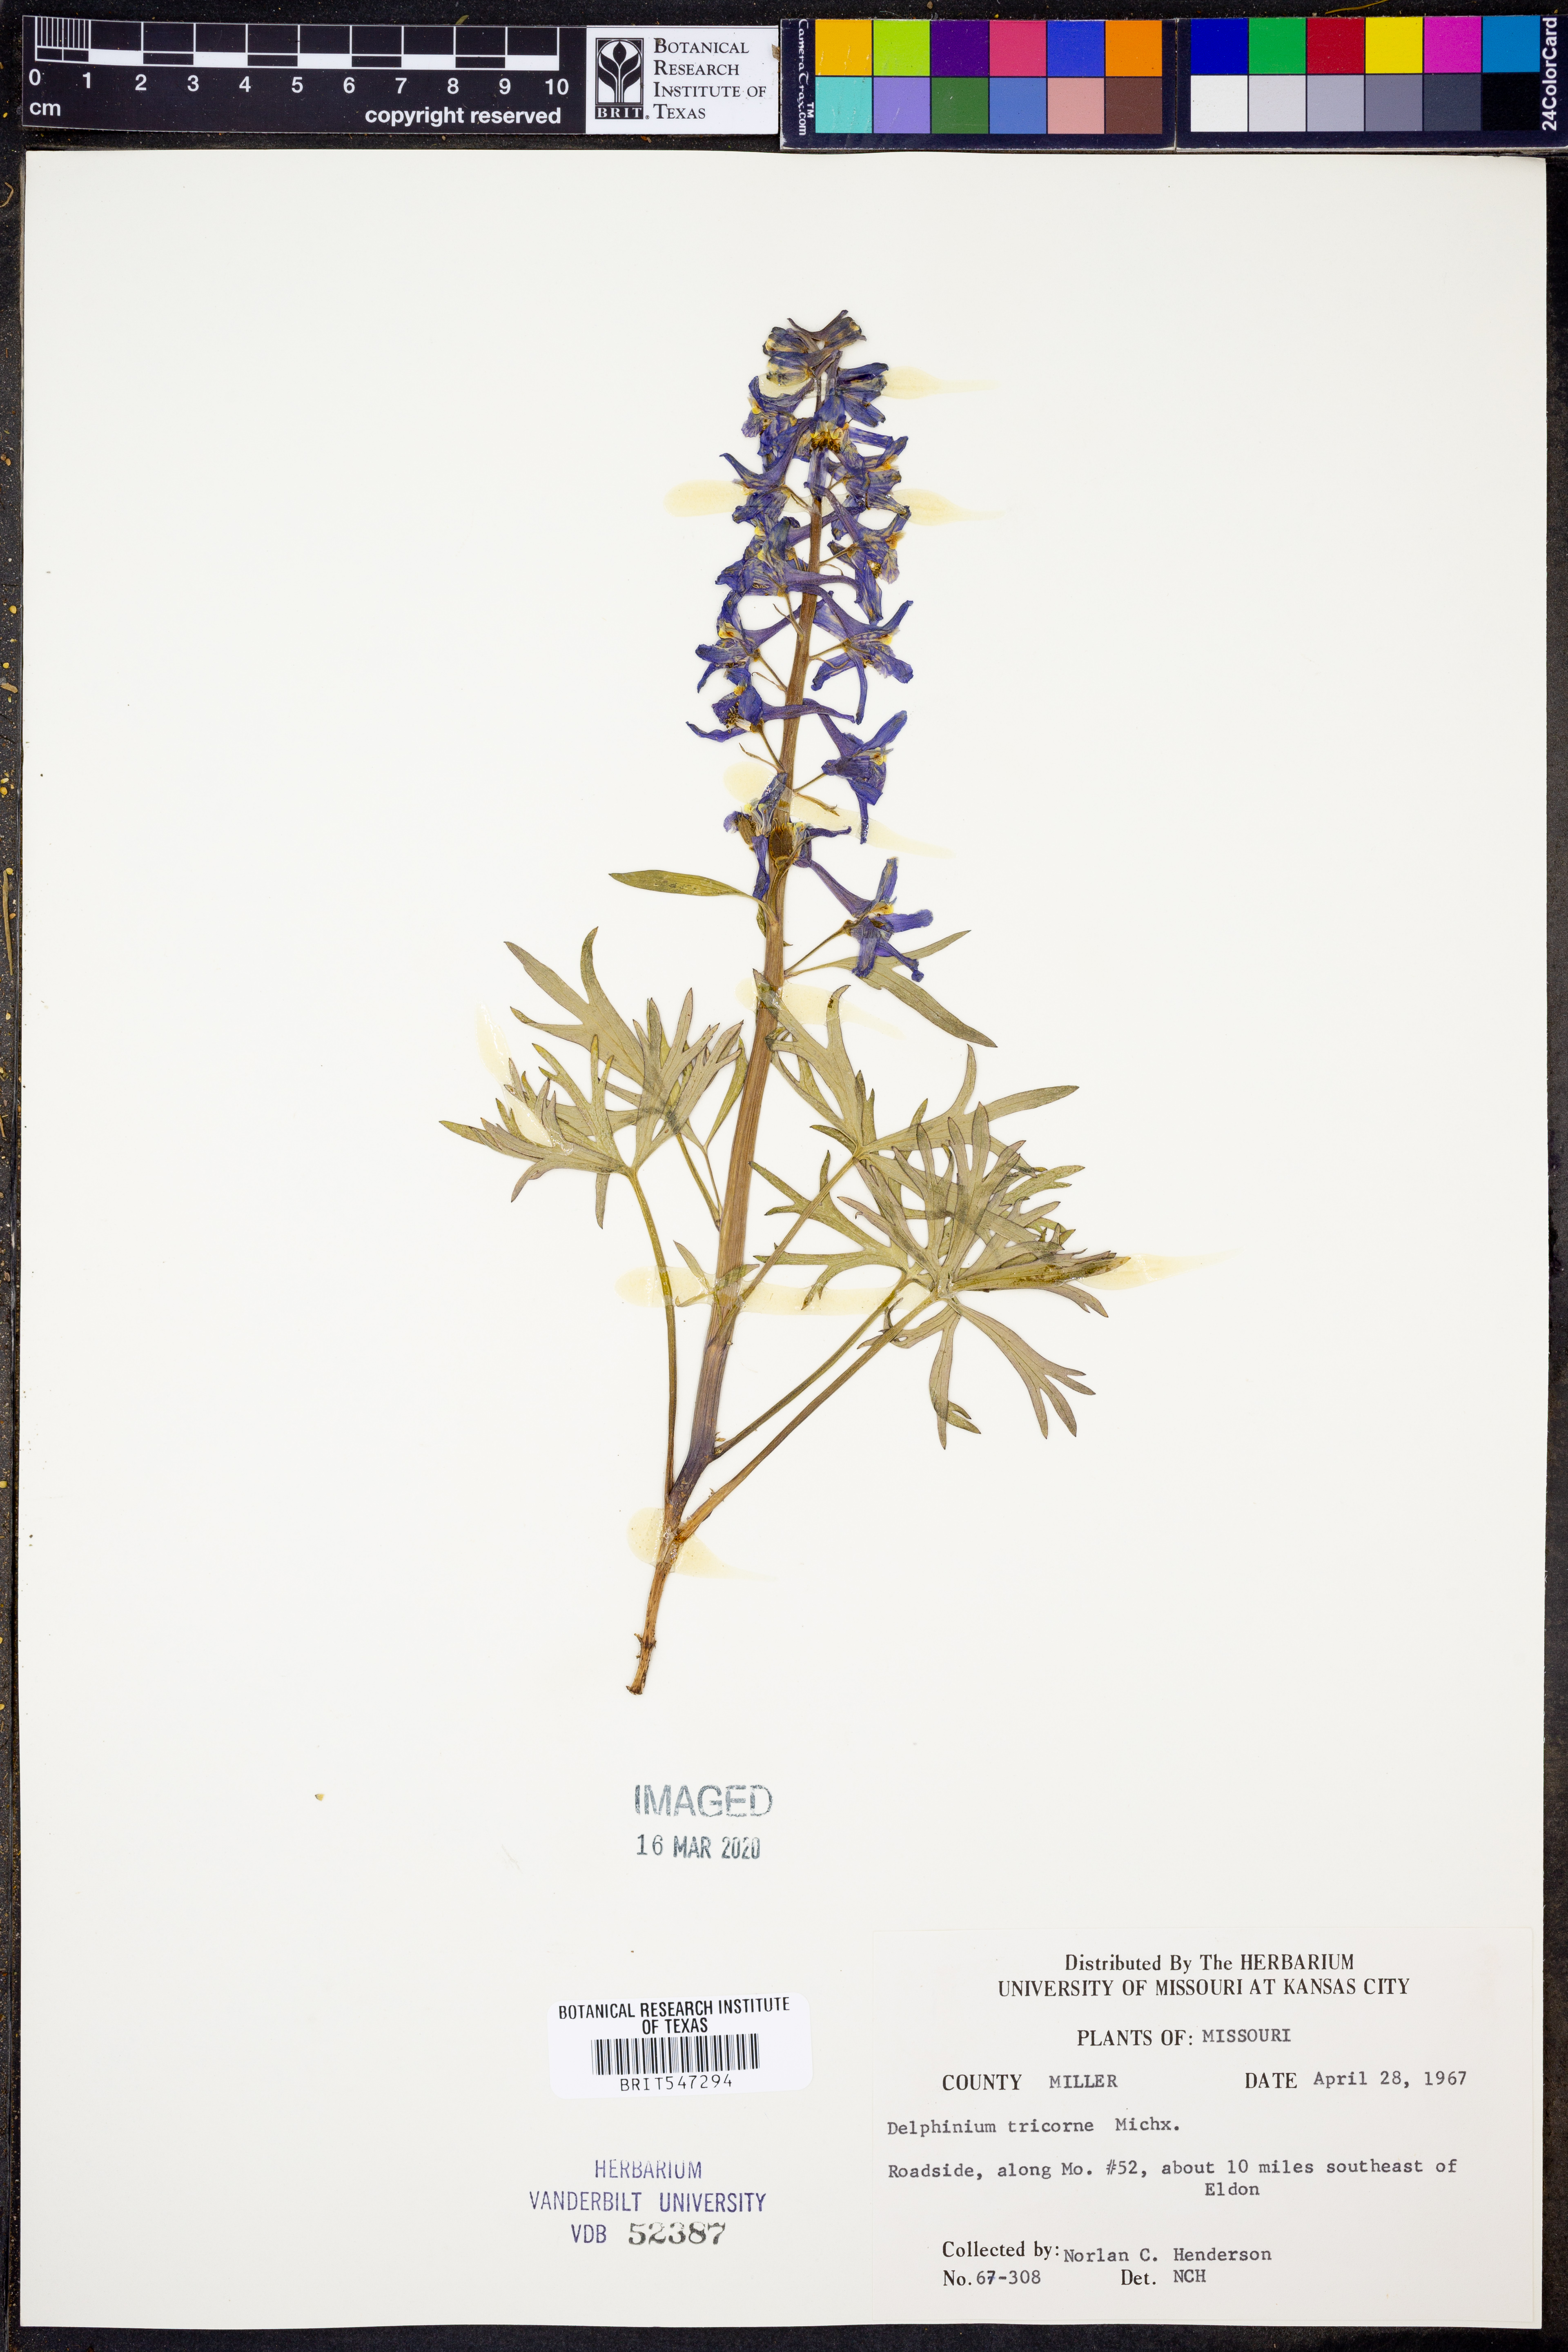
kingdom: Plantae
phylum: Tracheophyta
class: Magnoliopsida
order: Ranunculales
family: Ranunculaceae
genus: Delphinium
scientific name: Delphinium tricorne
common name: Dwarf larkspur
